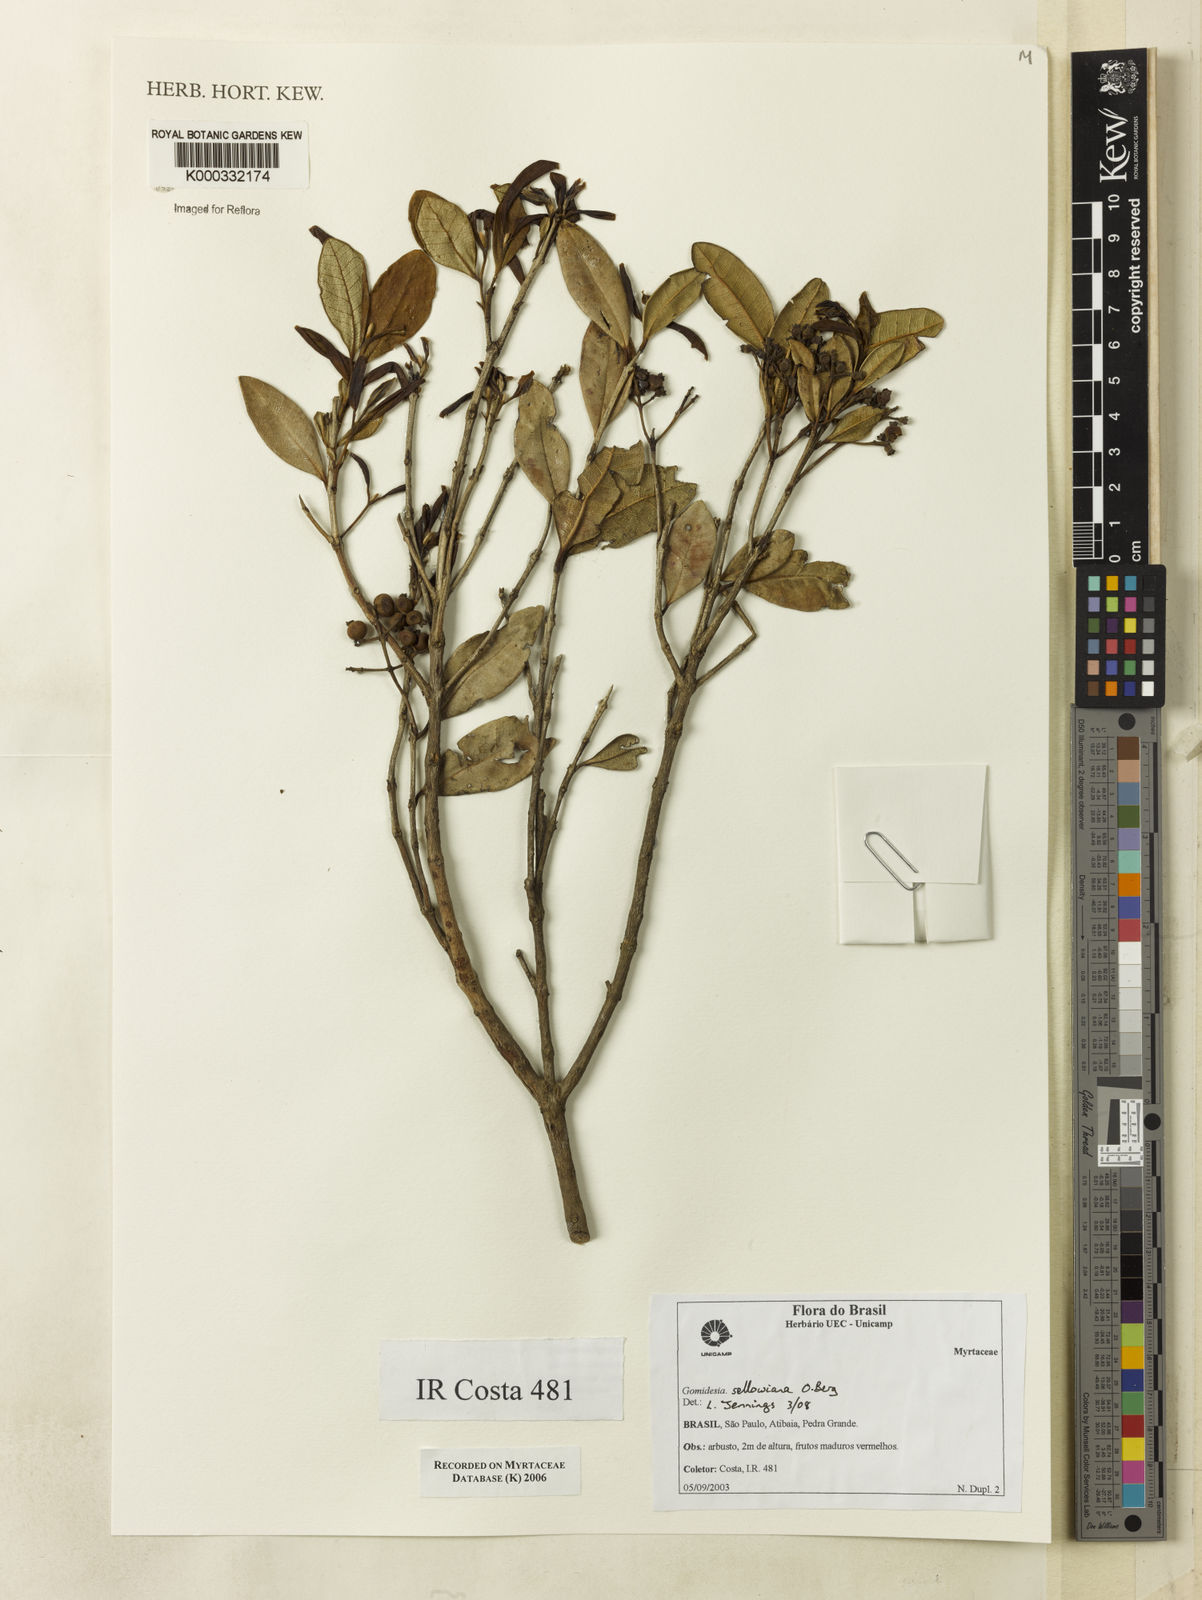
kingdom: Plantae
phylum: Tracheophyta
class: Magnoliopsida
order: Myrtales
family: Myrtaceae
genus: Myrcia
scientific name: Myrcia
